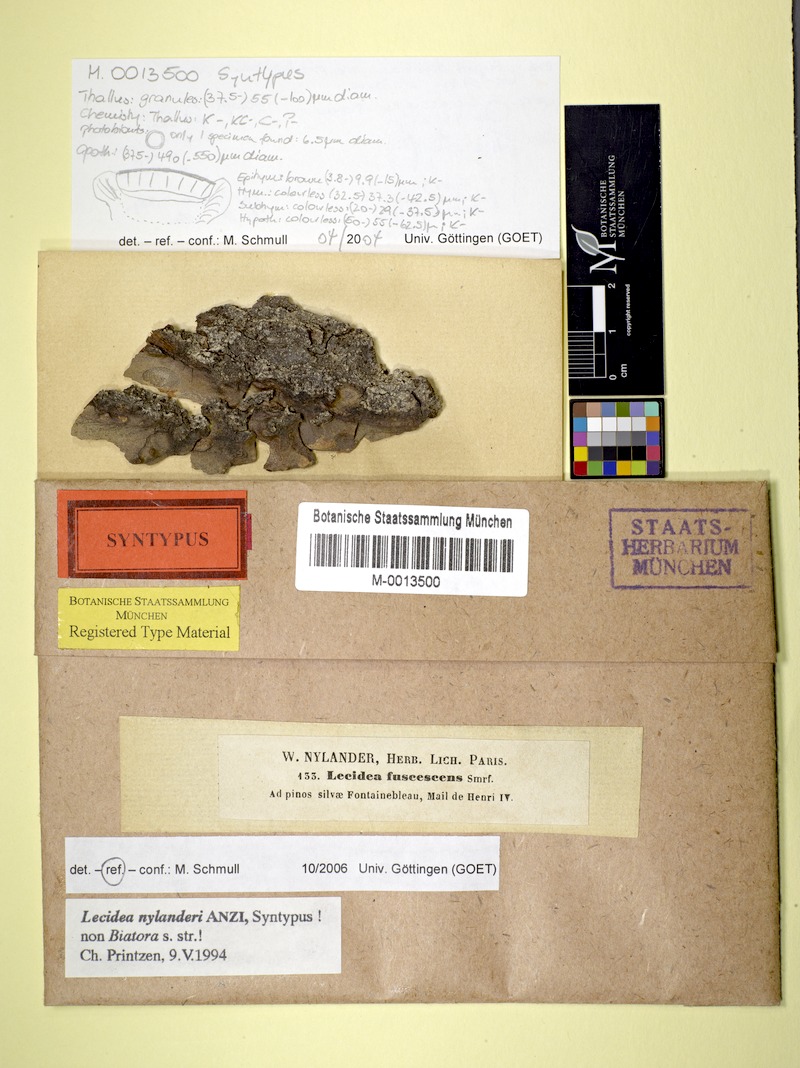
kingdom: Fungi
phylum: Ascomycota
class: Lecanoromycetes
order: Lecideales
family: Lecideaceae
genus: Lecidea
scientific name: Lecidea nylanderi
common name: Nylander's tile lichen
